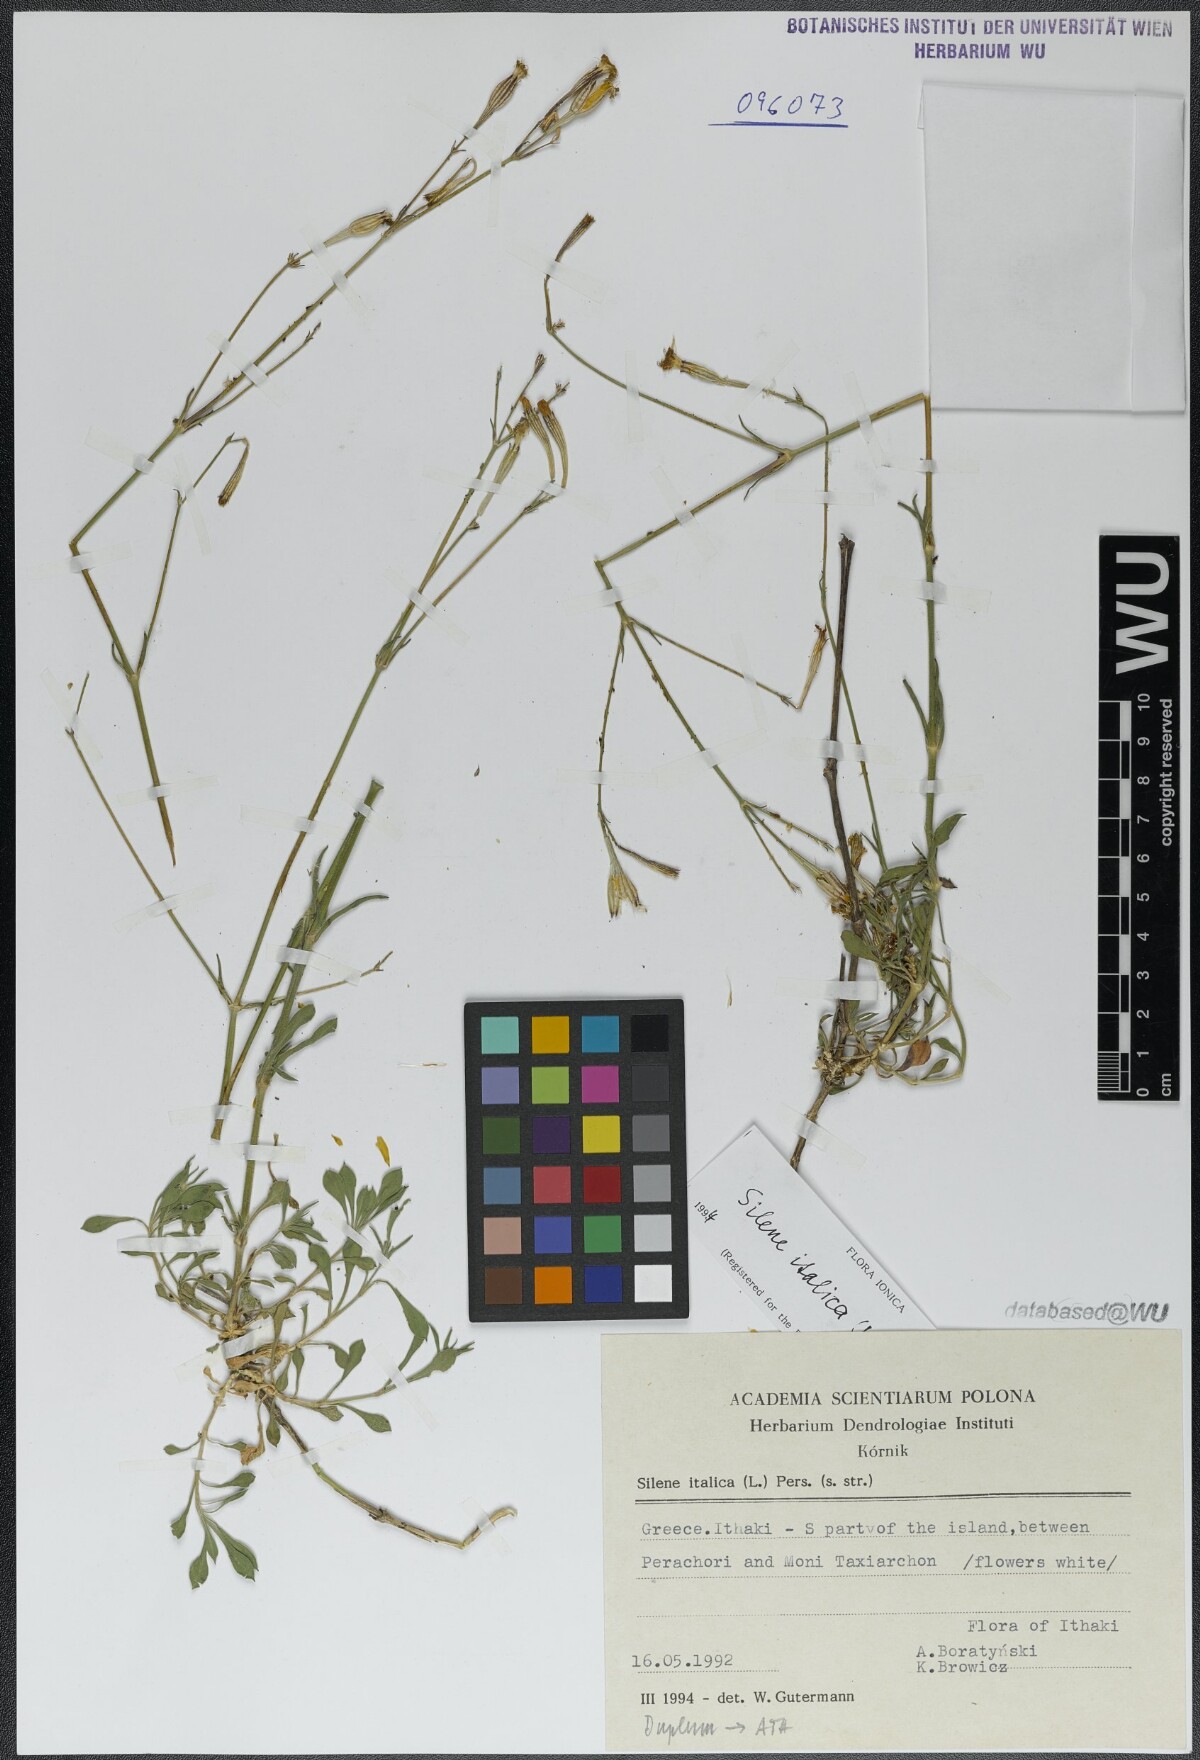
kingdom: Plantae
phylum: Tracheophyta
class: Magnoliopsida
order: Caryophyllales
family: Caryophyllaceae
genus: Silene
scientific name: Silene italica
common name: Italian catchfly
